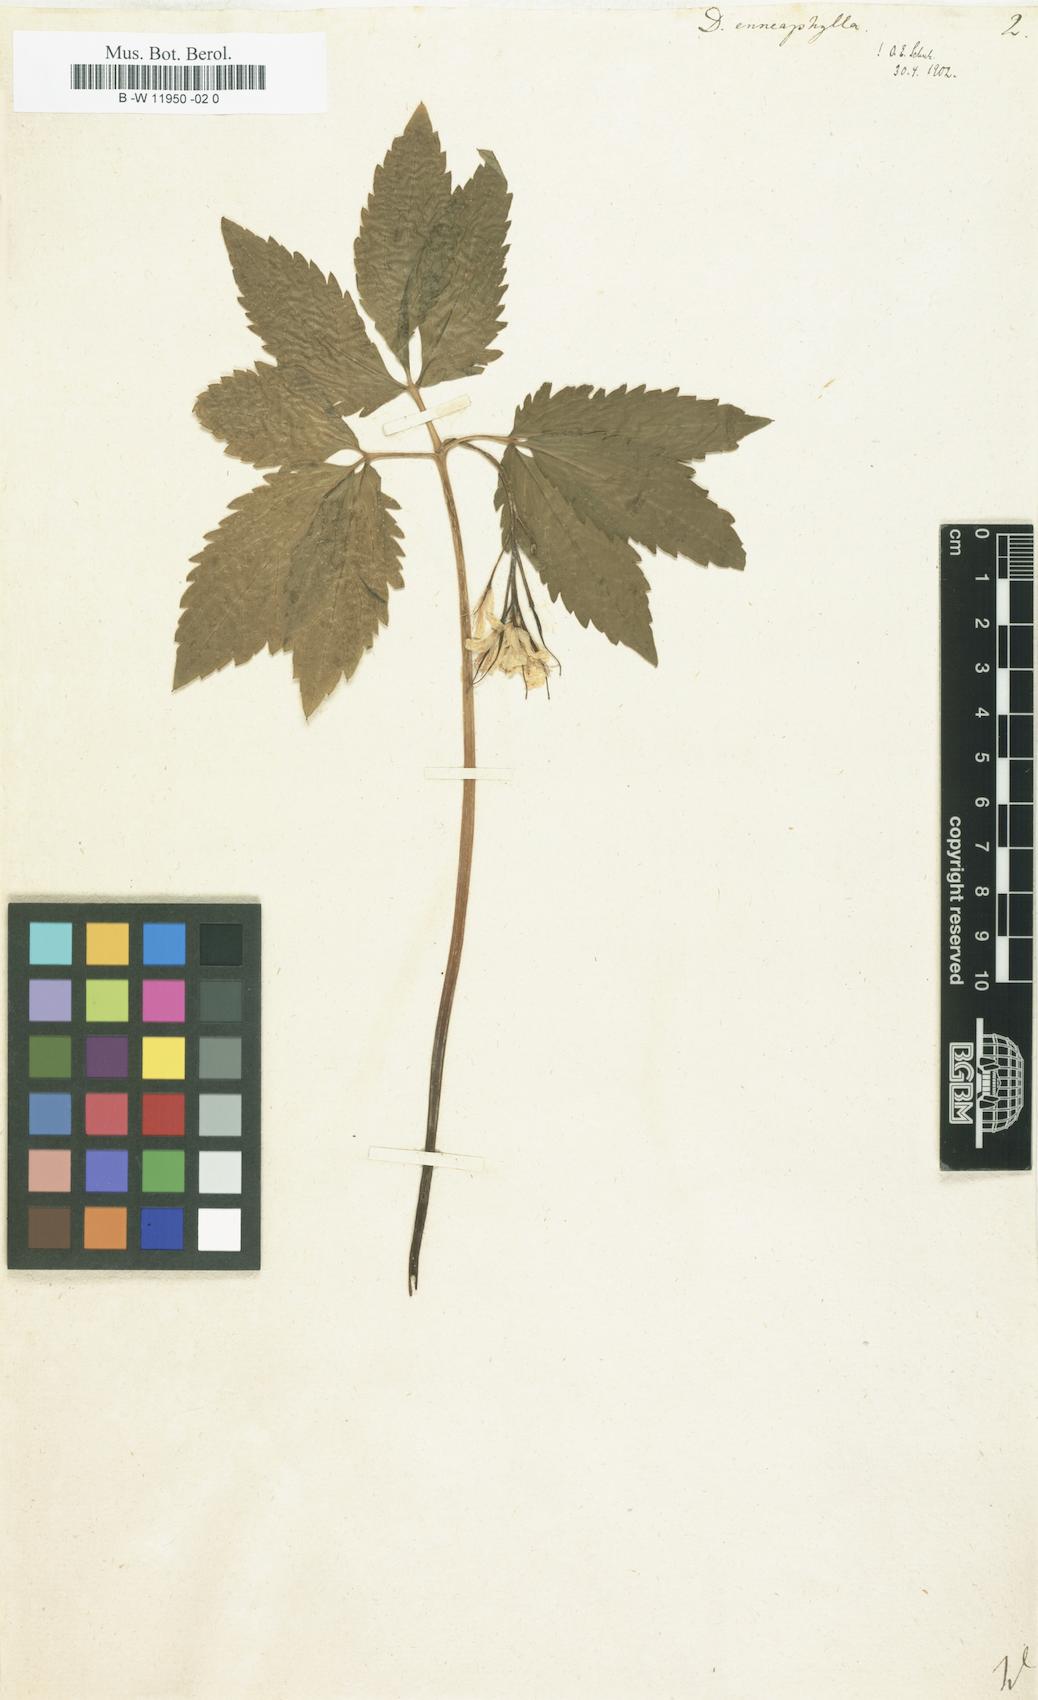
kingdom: Plantae
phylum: Tracheophyta
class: Magnoliopsida
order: Brassicales
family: Brassicaceae
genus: Cardamine
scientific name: Cardamine enneaphyllos
